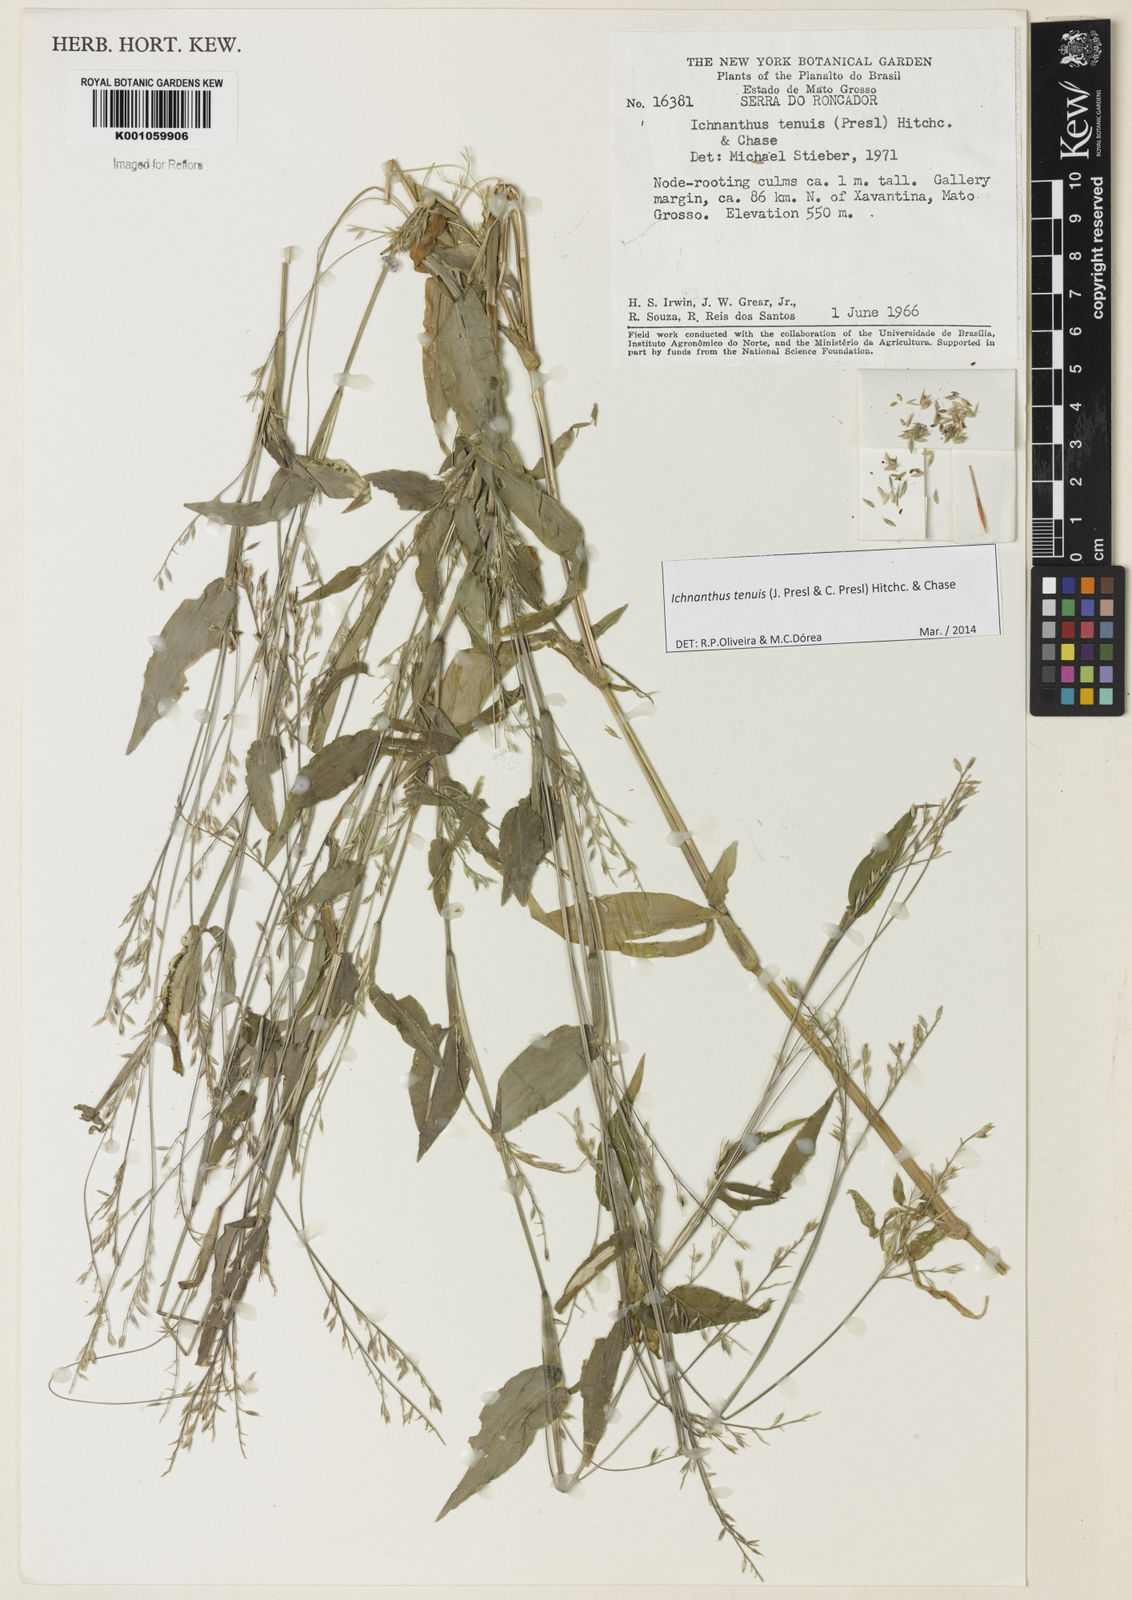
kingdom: Plantae
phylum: Tracheophyta
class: Liliopsida
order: Poales
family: Poaceae
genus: Ichnanthus
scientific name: Ichnanthus tenuis
